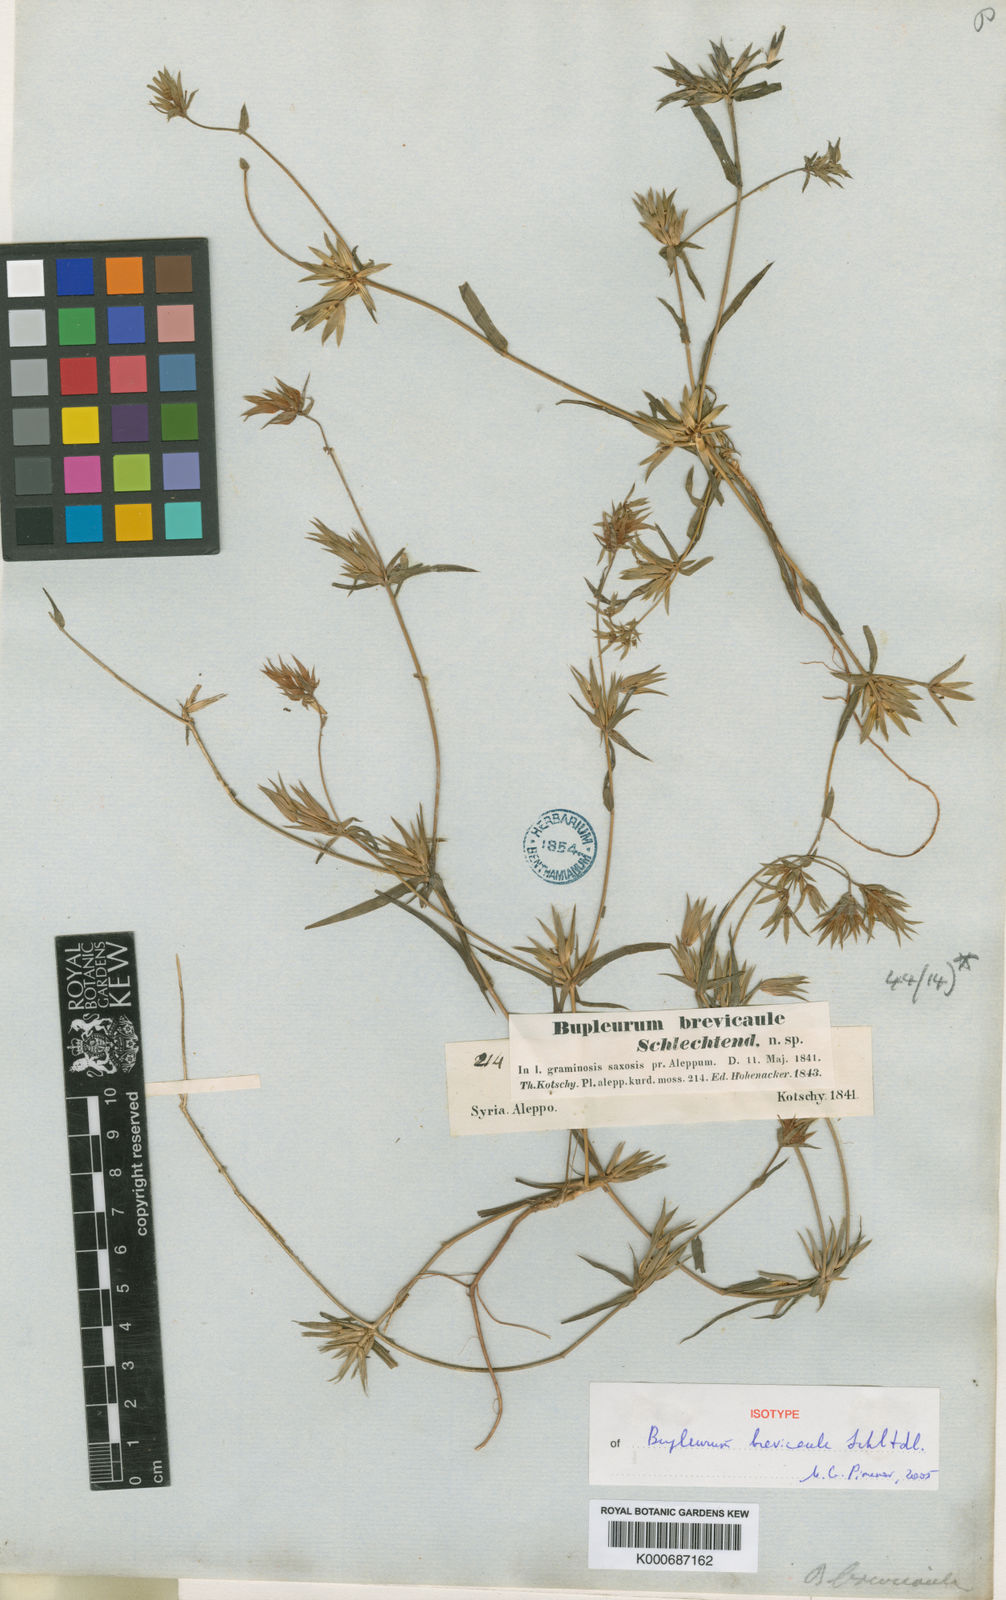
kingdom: Plantae
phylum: Tracheophyta
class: Magnoliopsida
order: Apiales
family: Apiaceae
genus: Bupleurum
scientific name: Bupleurum brevicaule
